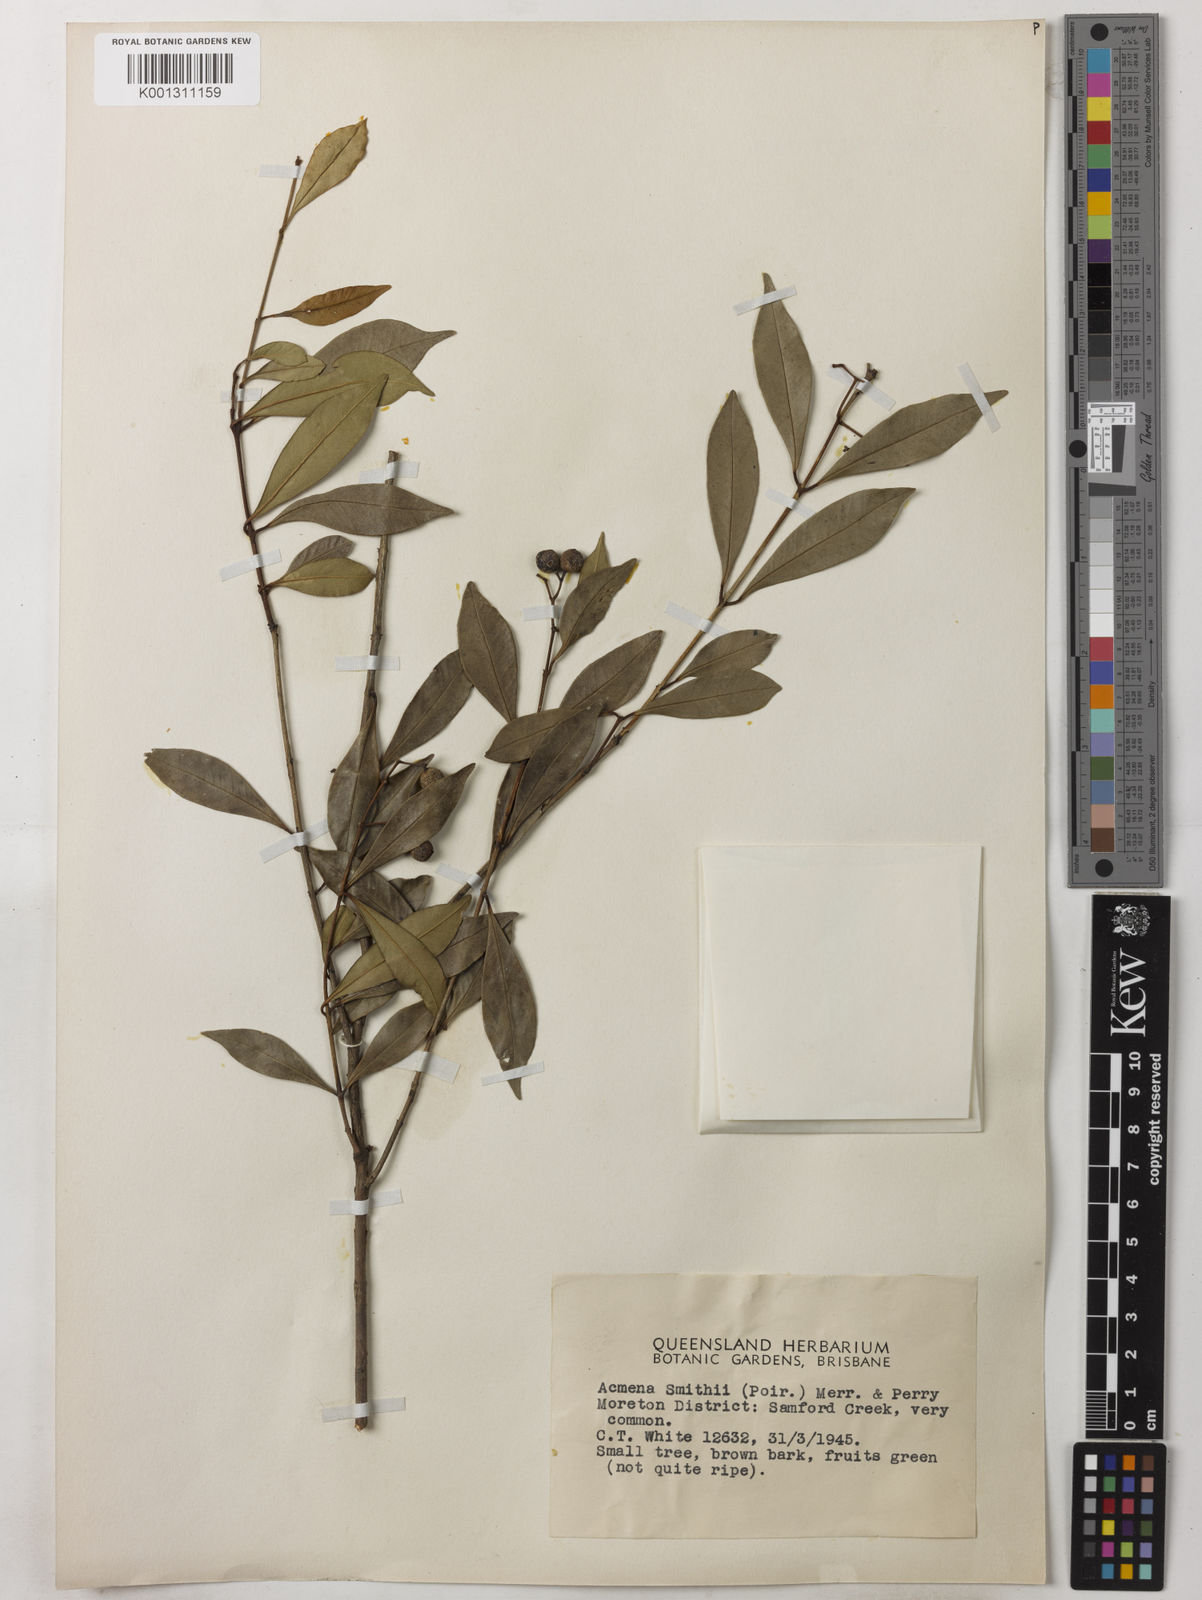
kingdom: Plantae
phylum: Tracheophyta
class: Magnoliopsida
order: Myrtales
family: Myrtaceae
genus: Syzygium
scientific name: Syzygium smithii
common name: Lilly-pilly
